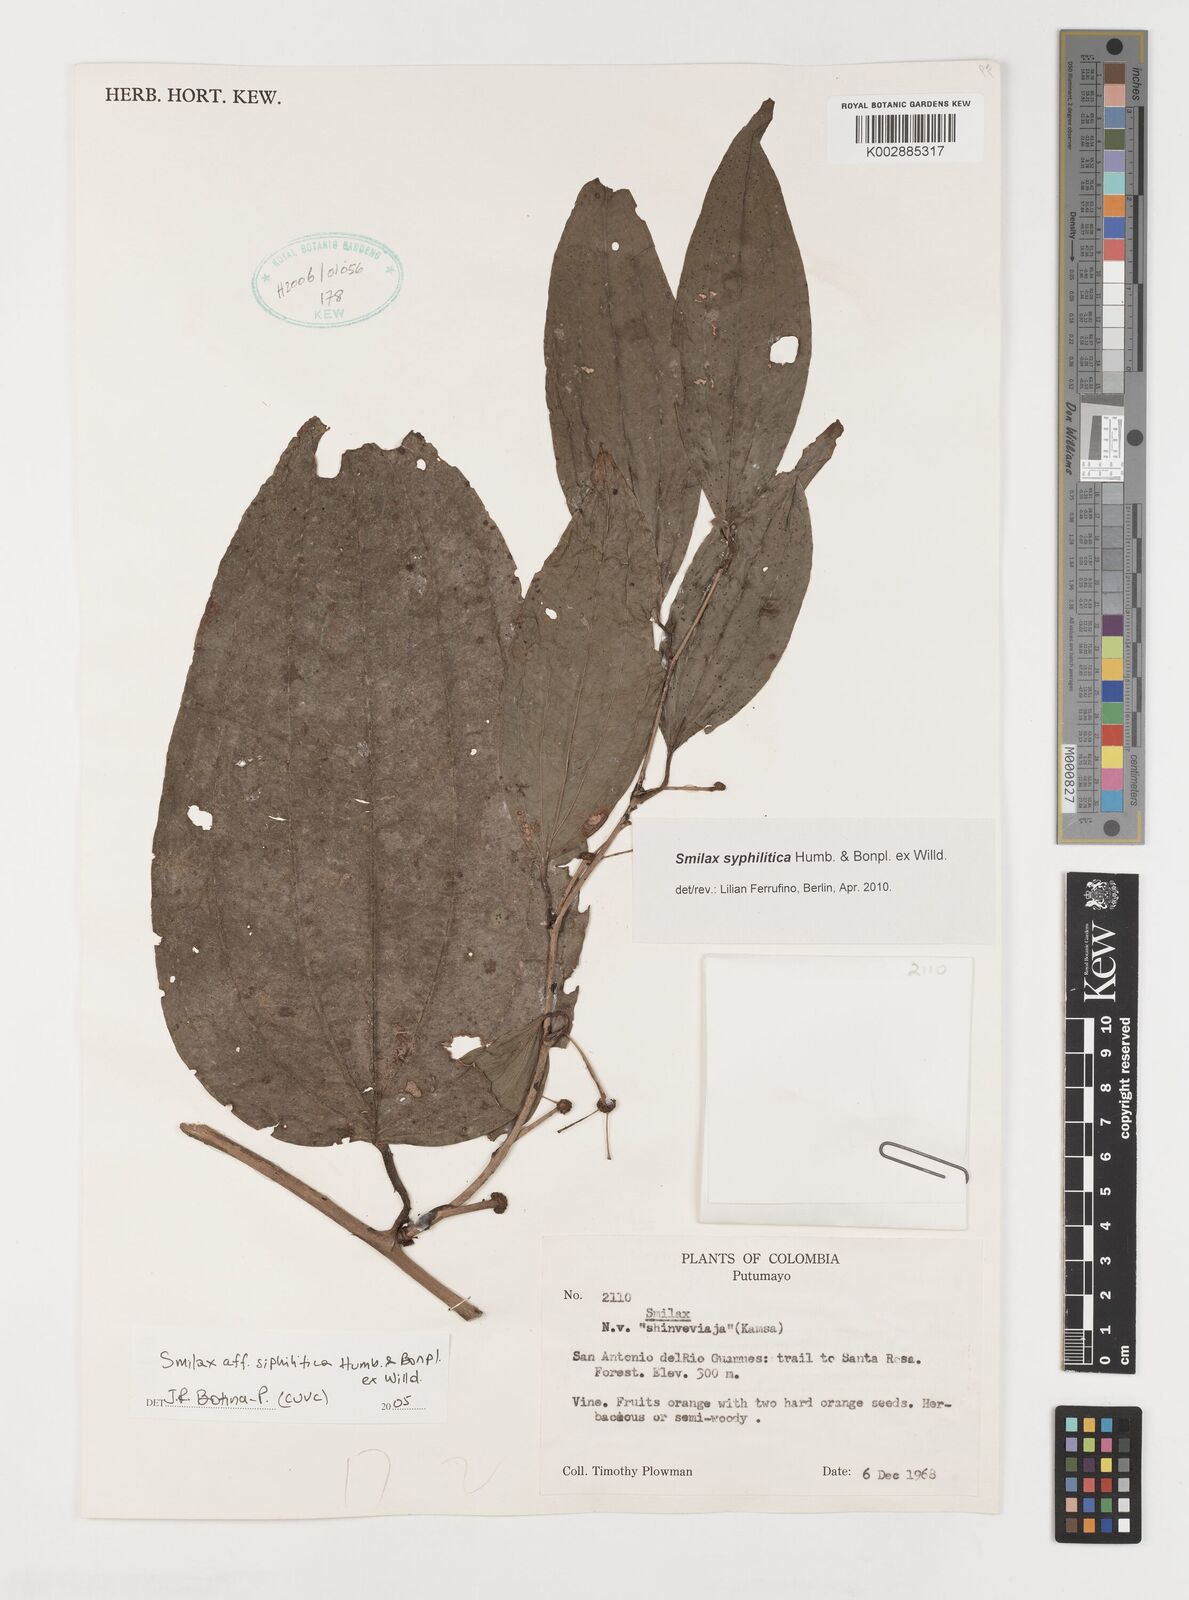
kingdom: Plantae
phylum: Tracheophyta
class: Liliopsida
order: Liliales
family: Smilacaceae
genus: Smilax
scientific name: Smilax
